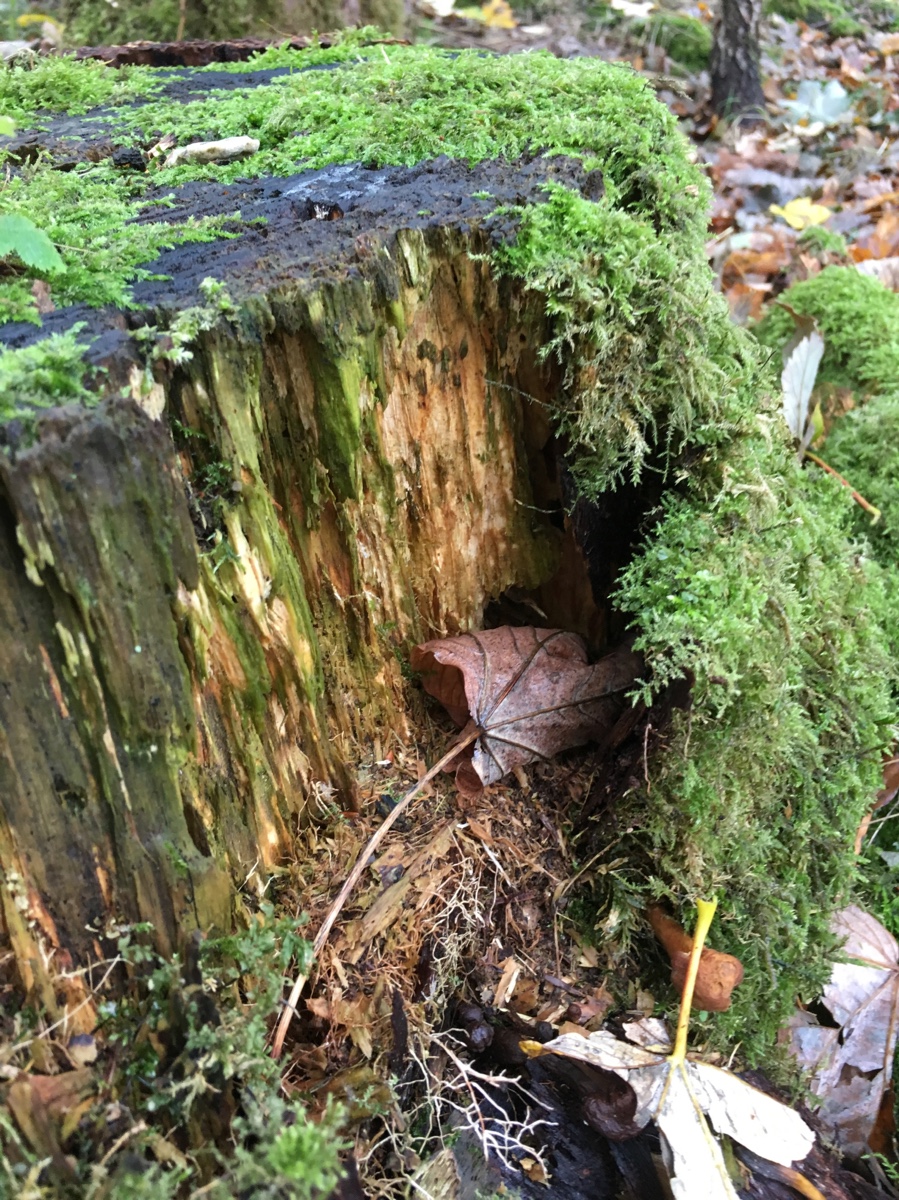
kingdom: Fungi
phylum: Basidiomycota
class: Agaricomycetes
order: Agaricales
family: Physalacriaceae
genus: Armillaria
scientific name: Armillaria ostoyae
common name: mørk honningsvamp
